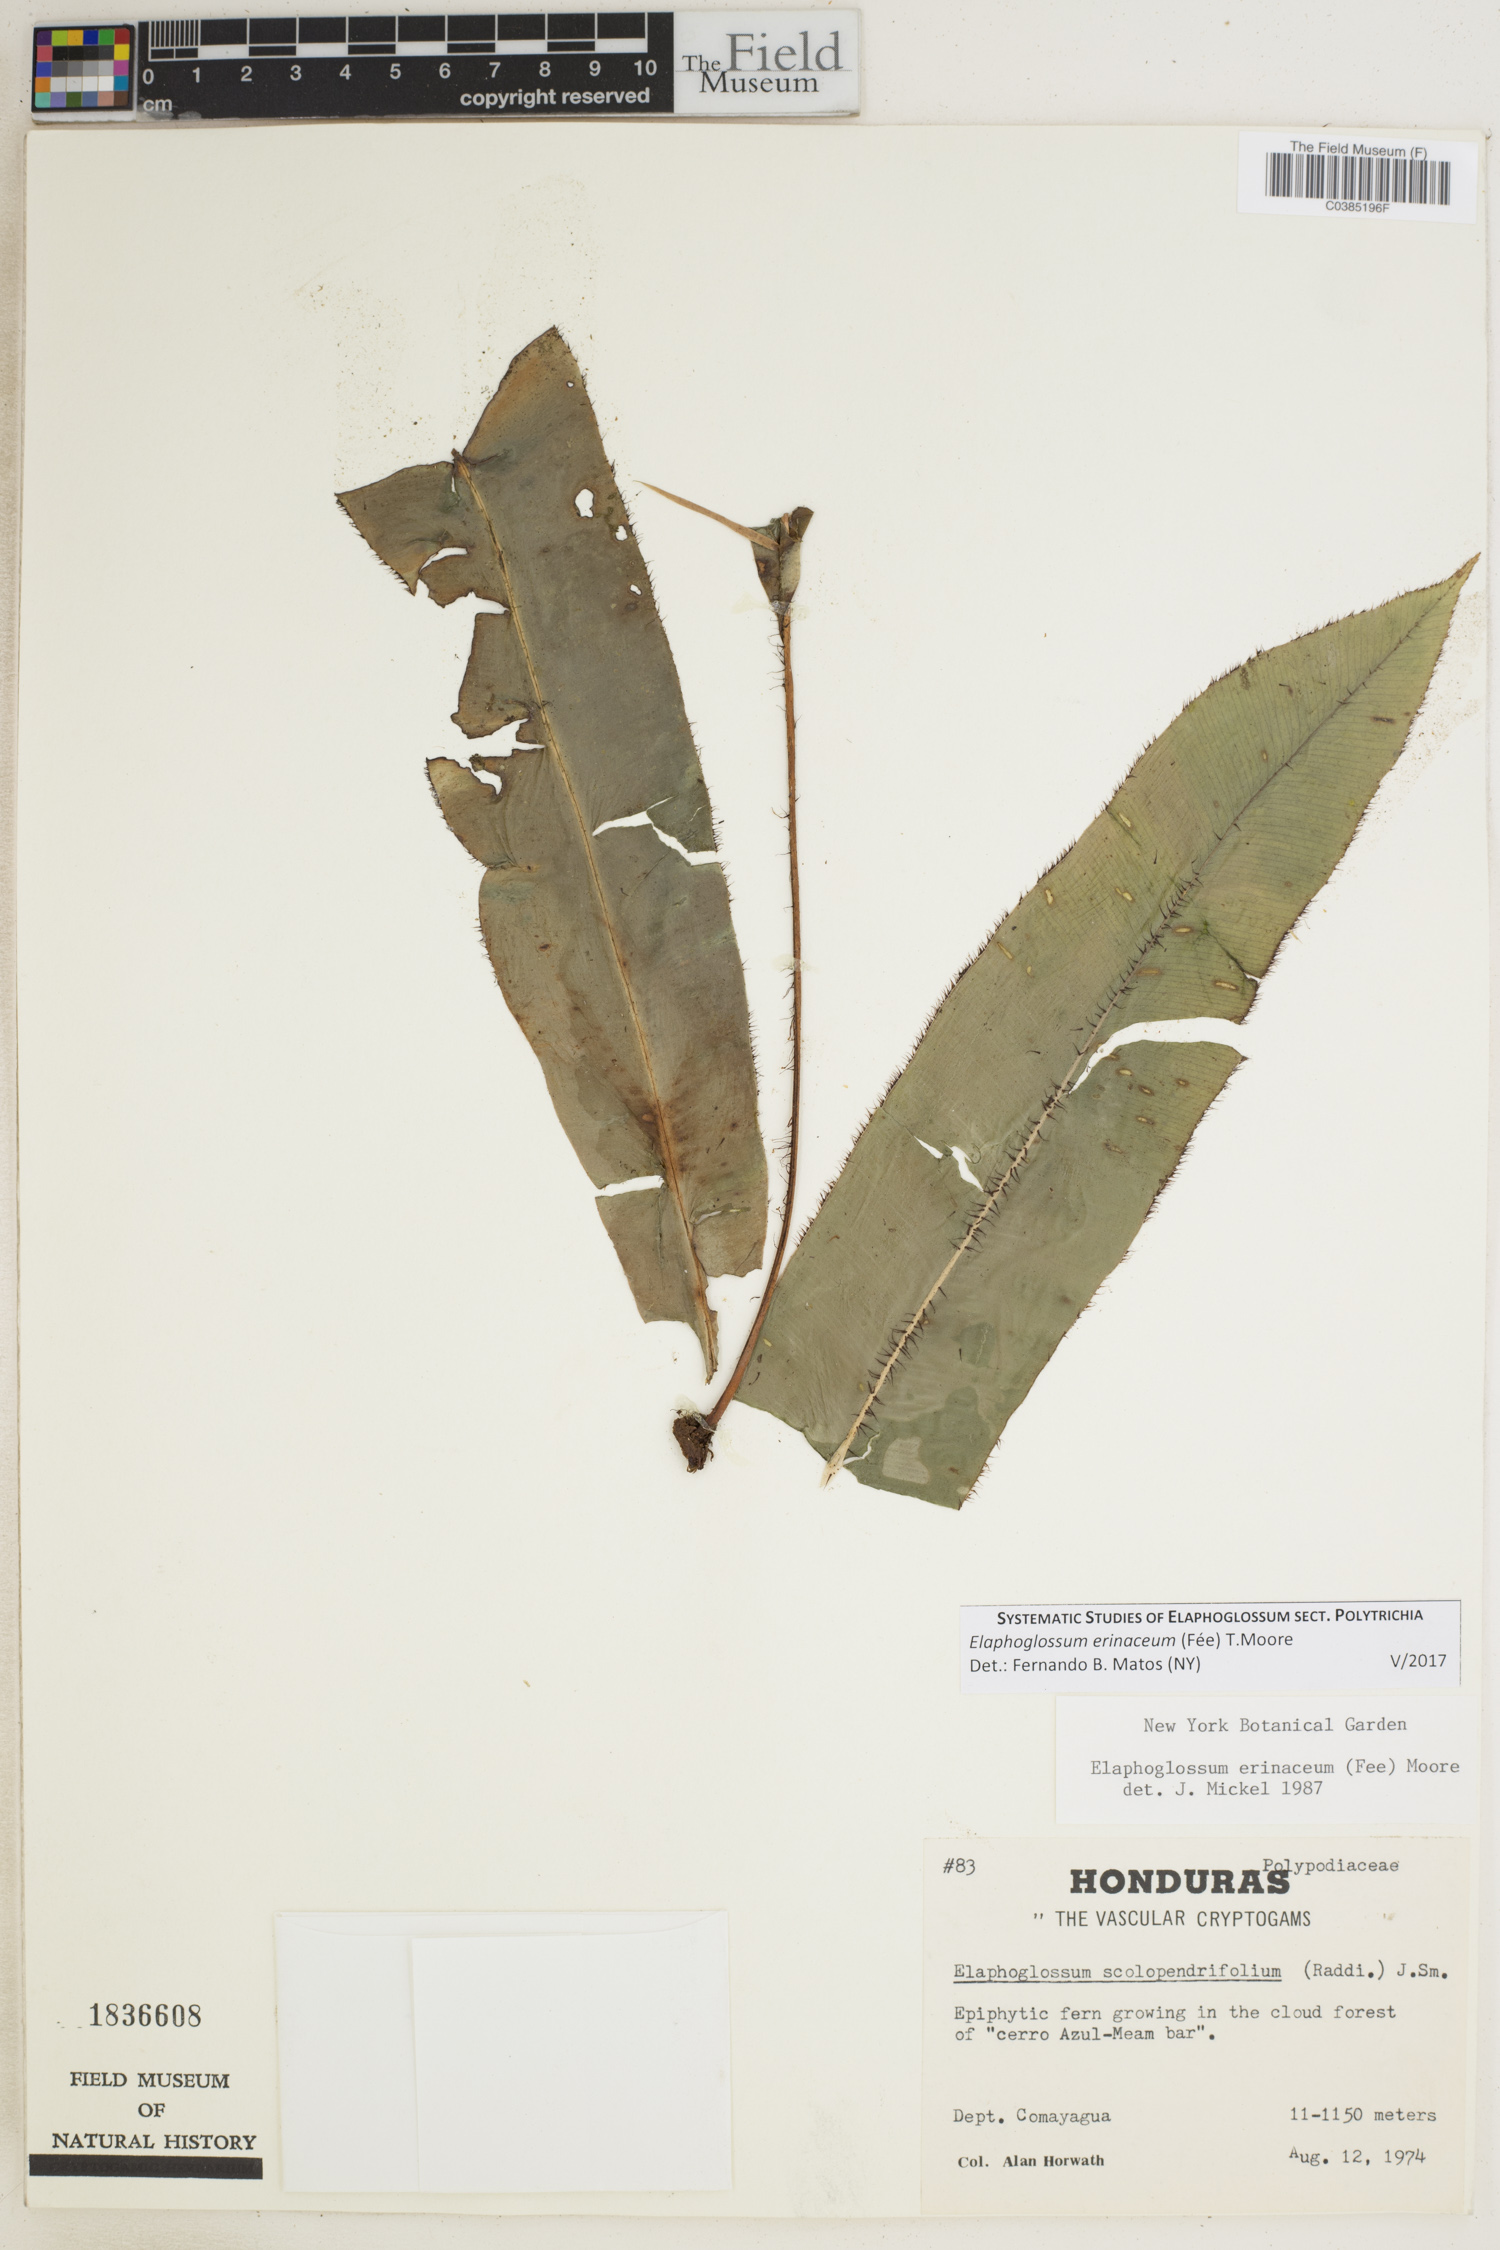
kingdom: Plantae
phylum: Tracheophyta
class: Polypodiopsida
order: Polypodiales
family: Dryopteridaceae
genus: Elaphoglossum
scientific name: Elaphoglossum erinaceum
